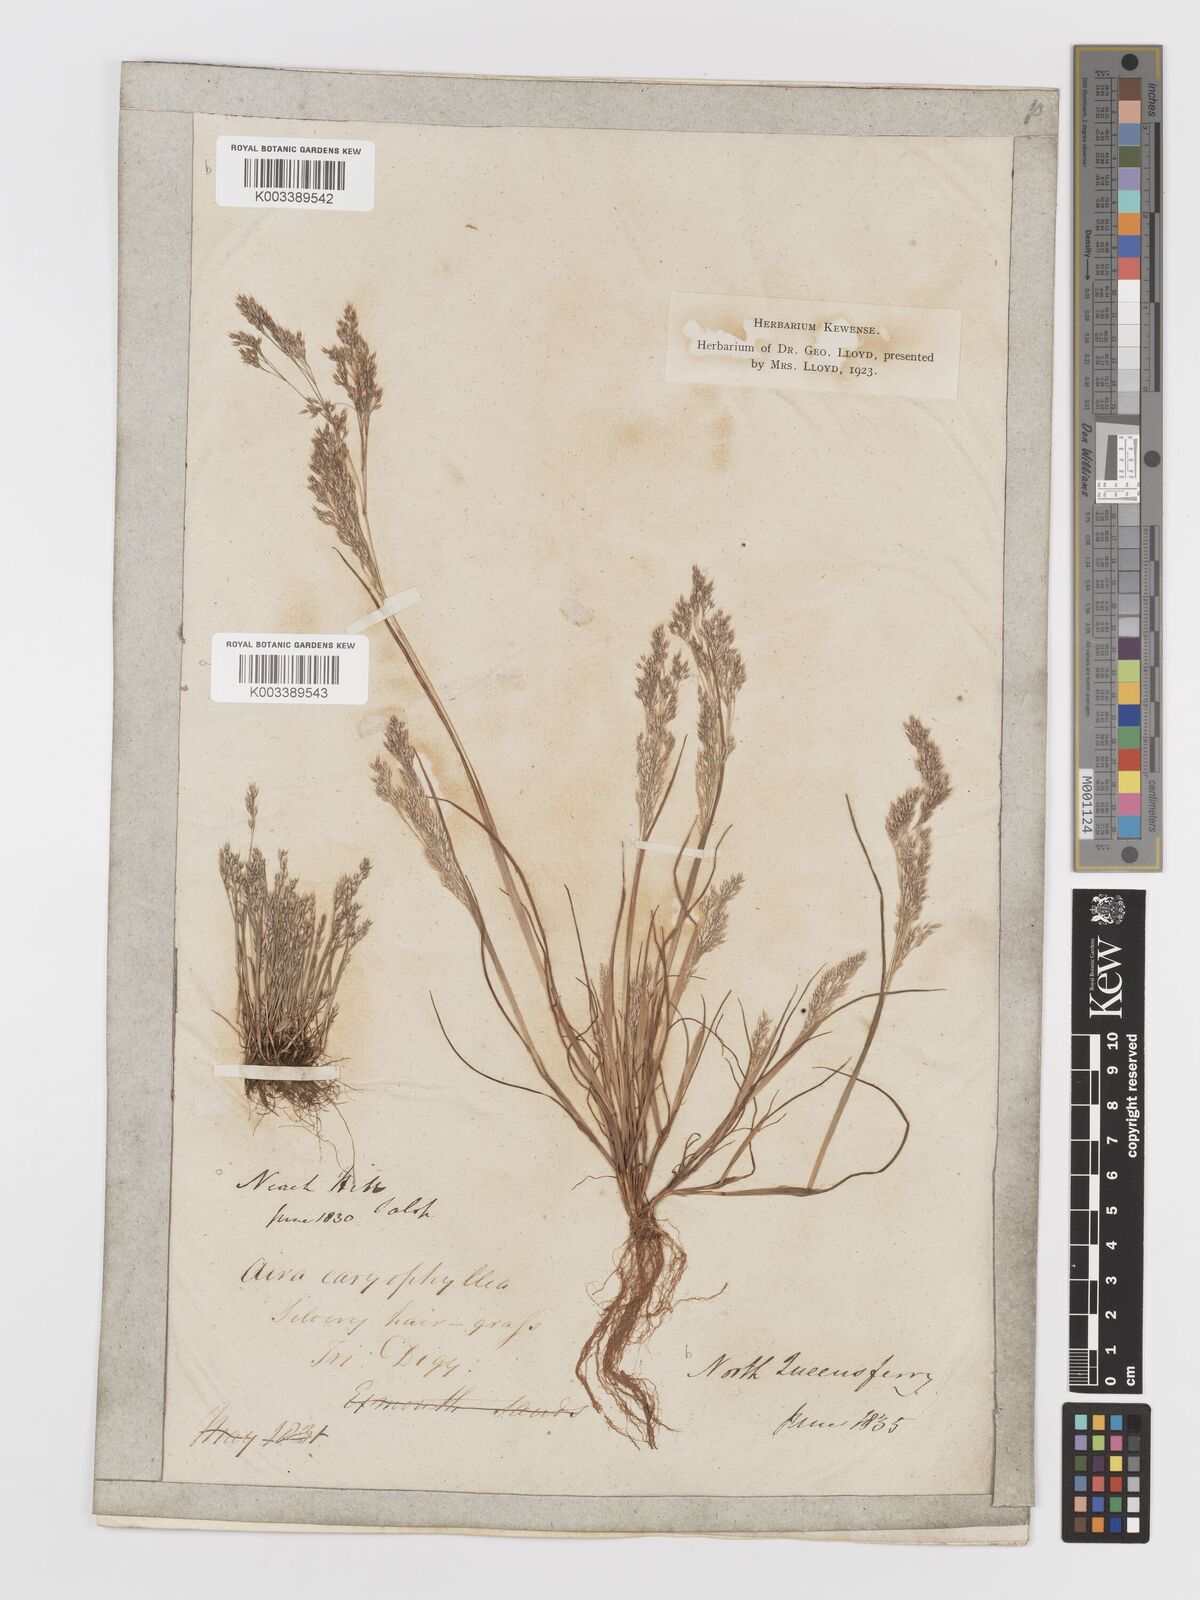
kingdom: Plantae
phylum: Tracheophyta
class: Liliopsida
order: Poales
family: Poaceae
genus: Aira
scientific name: Aira caryophyllea
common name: Silver hairgrass
